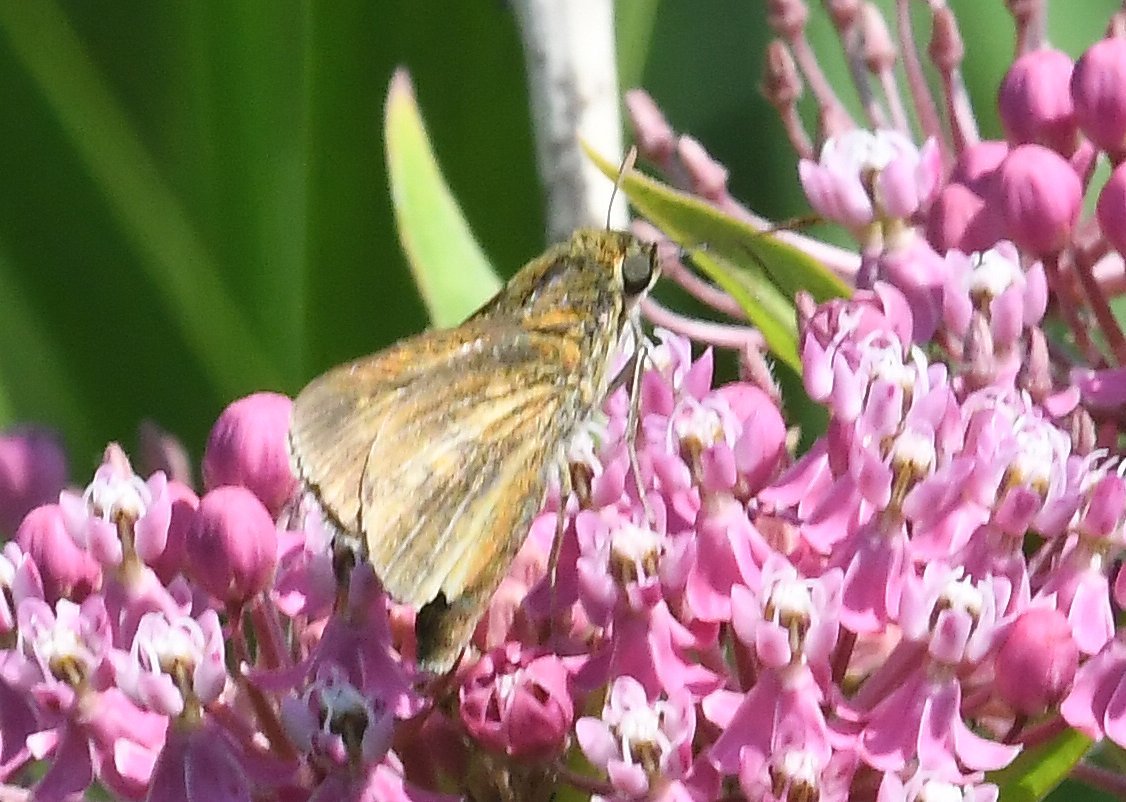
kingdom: Animalia
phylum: Arthropoda
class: Insecta
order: Lepidoptera
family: Hesperiidae
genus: Euphyes
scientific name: Euphyes dion
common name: Dion Skipper
